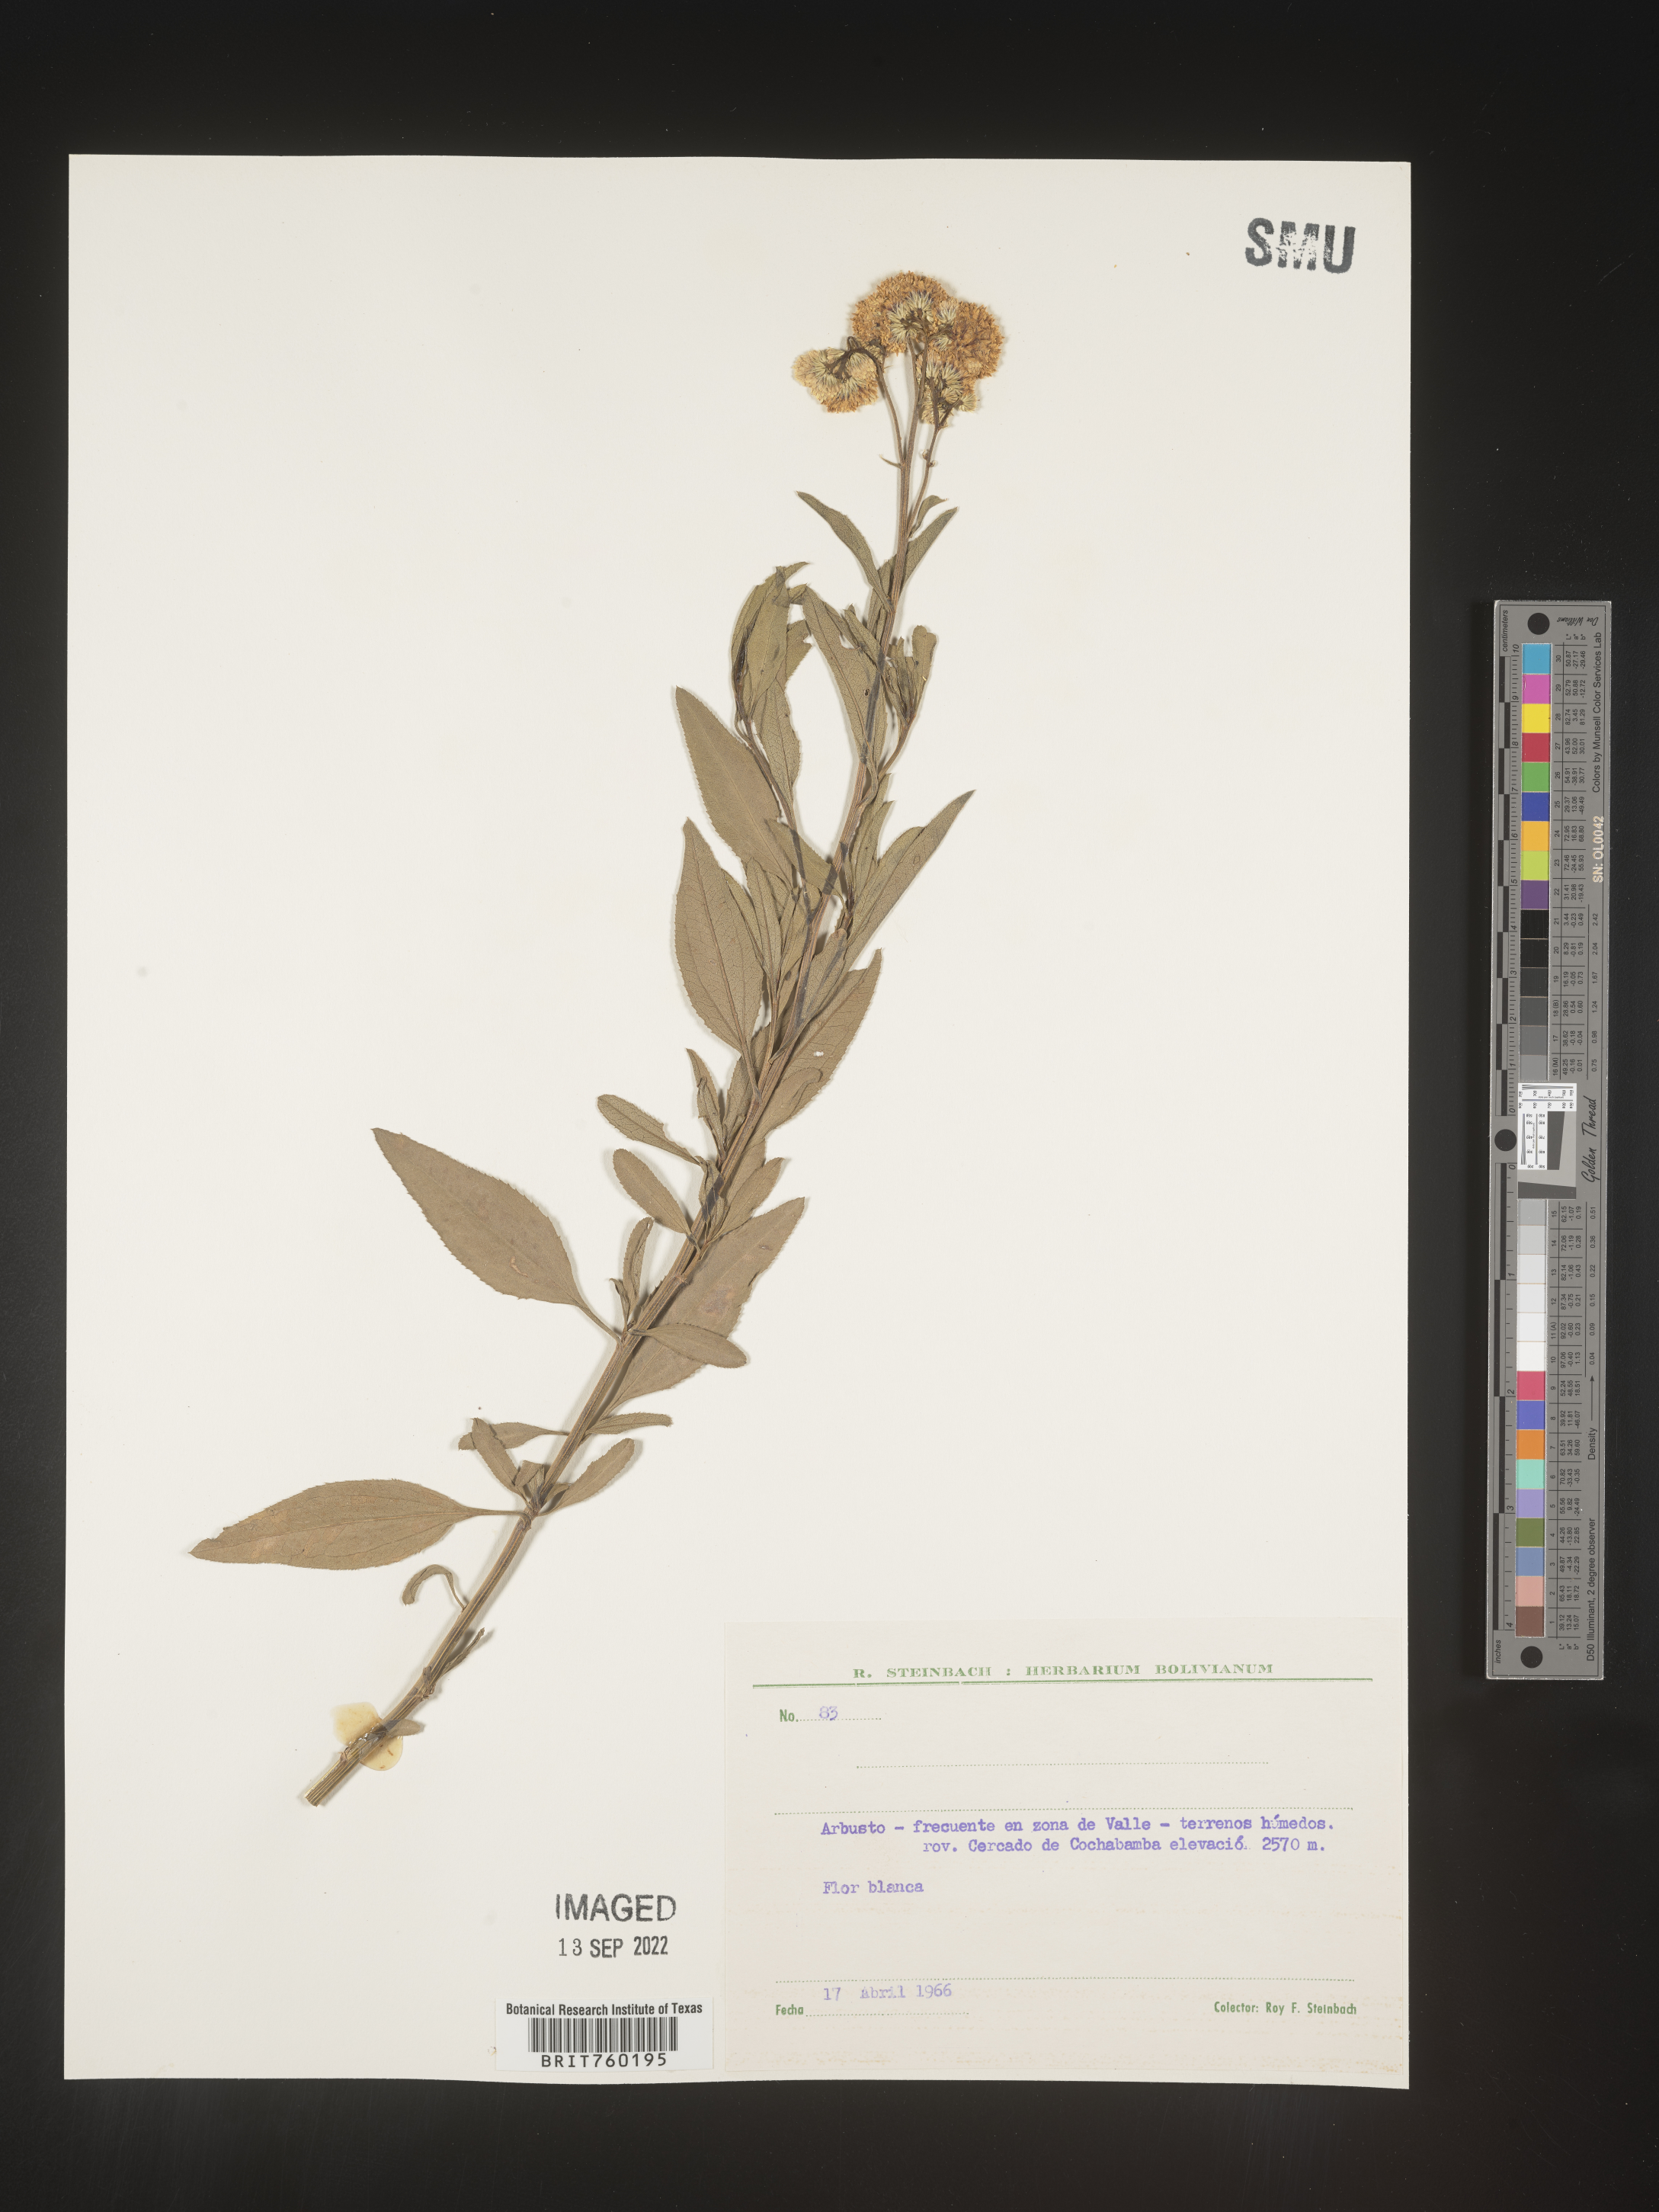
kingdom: Plantae
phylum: Tracheophyta
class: Magnoliopsida
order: Asterales
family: Asteraceae
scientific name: Asteraceae
